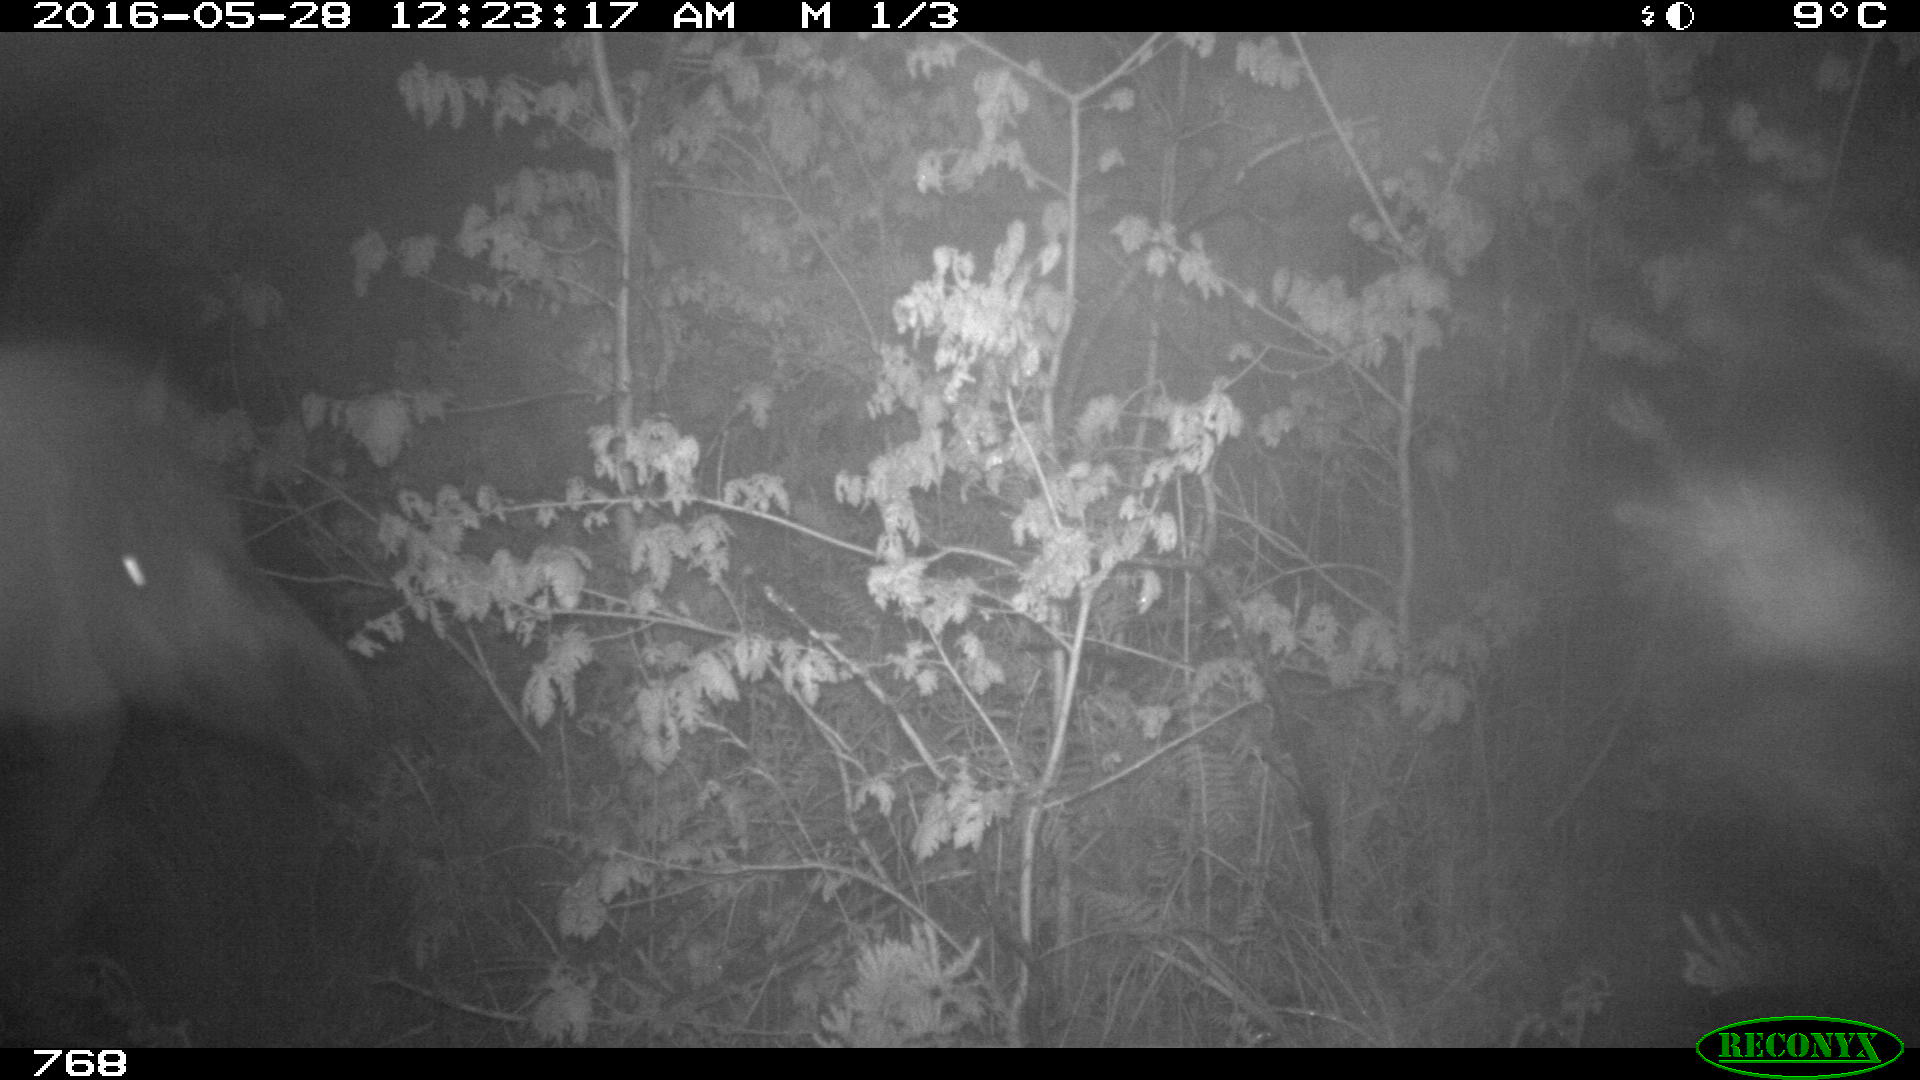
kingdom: Animalia
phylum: Chordata
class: Mammalia
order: Perissodactyla
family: Equidae
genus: Equus
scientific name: Equus caballus
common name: Horse
